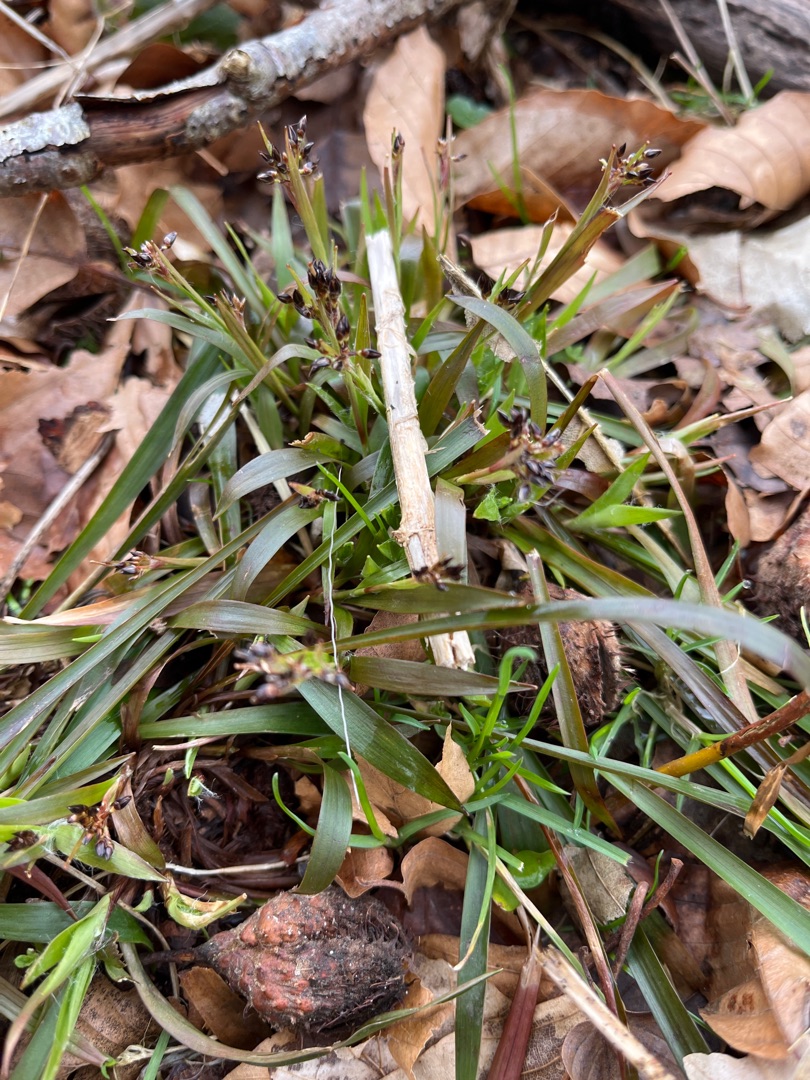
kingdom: Plantae
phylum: Tracheophyta
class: Liliopsida
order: Poales
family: Juncaceae
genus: Luzula
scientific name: Luzula pilosa
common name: Håret frytle
